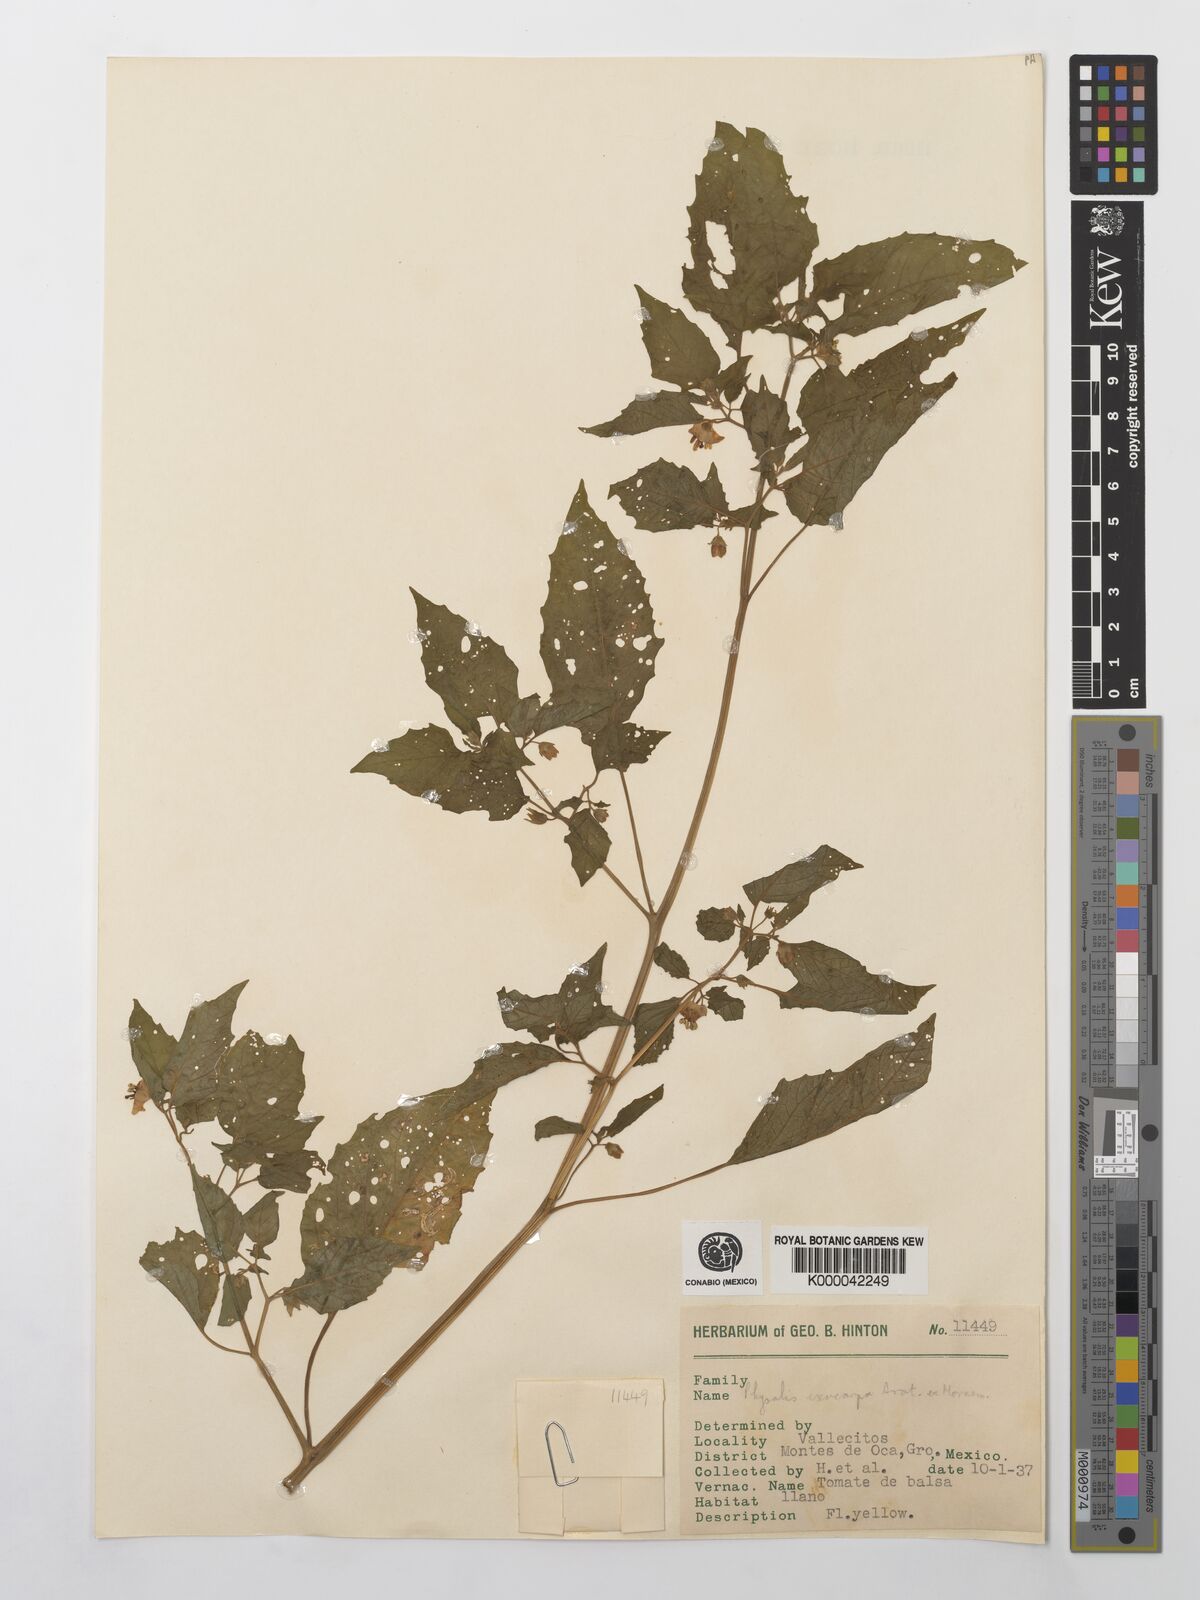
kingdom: Plantae
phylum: Tracheophyta
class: Magnoliopsida
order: Solanales
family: Solanaceae
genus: Physalis
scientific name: Physalis philadelphica
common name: Husk-tomato
